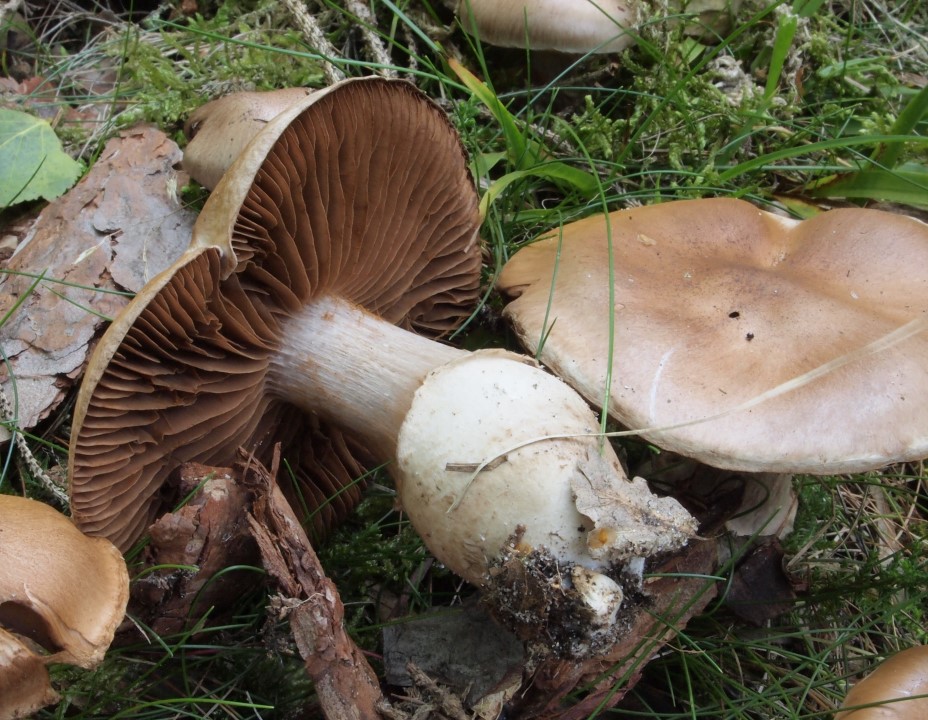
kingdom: Fungi
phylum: Basidiomycota
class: Agaricomycetes
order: Agaricales
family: Cortinariaceae
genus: Cortinarius
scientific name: Cortinarius torvus
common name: champignonagtig slørhat
